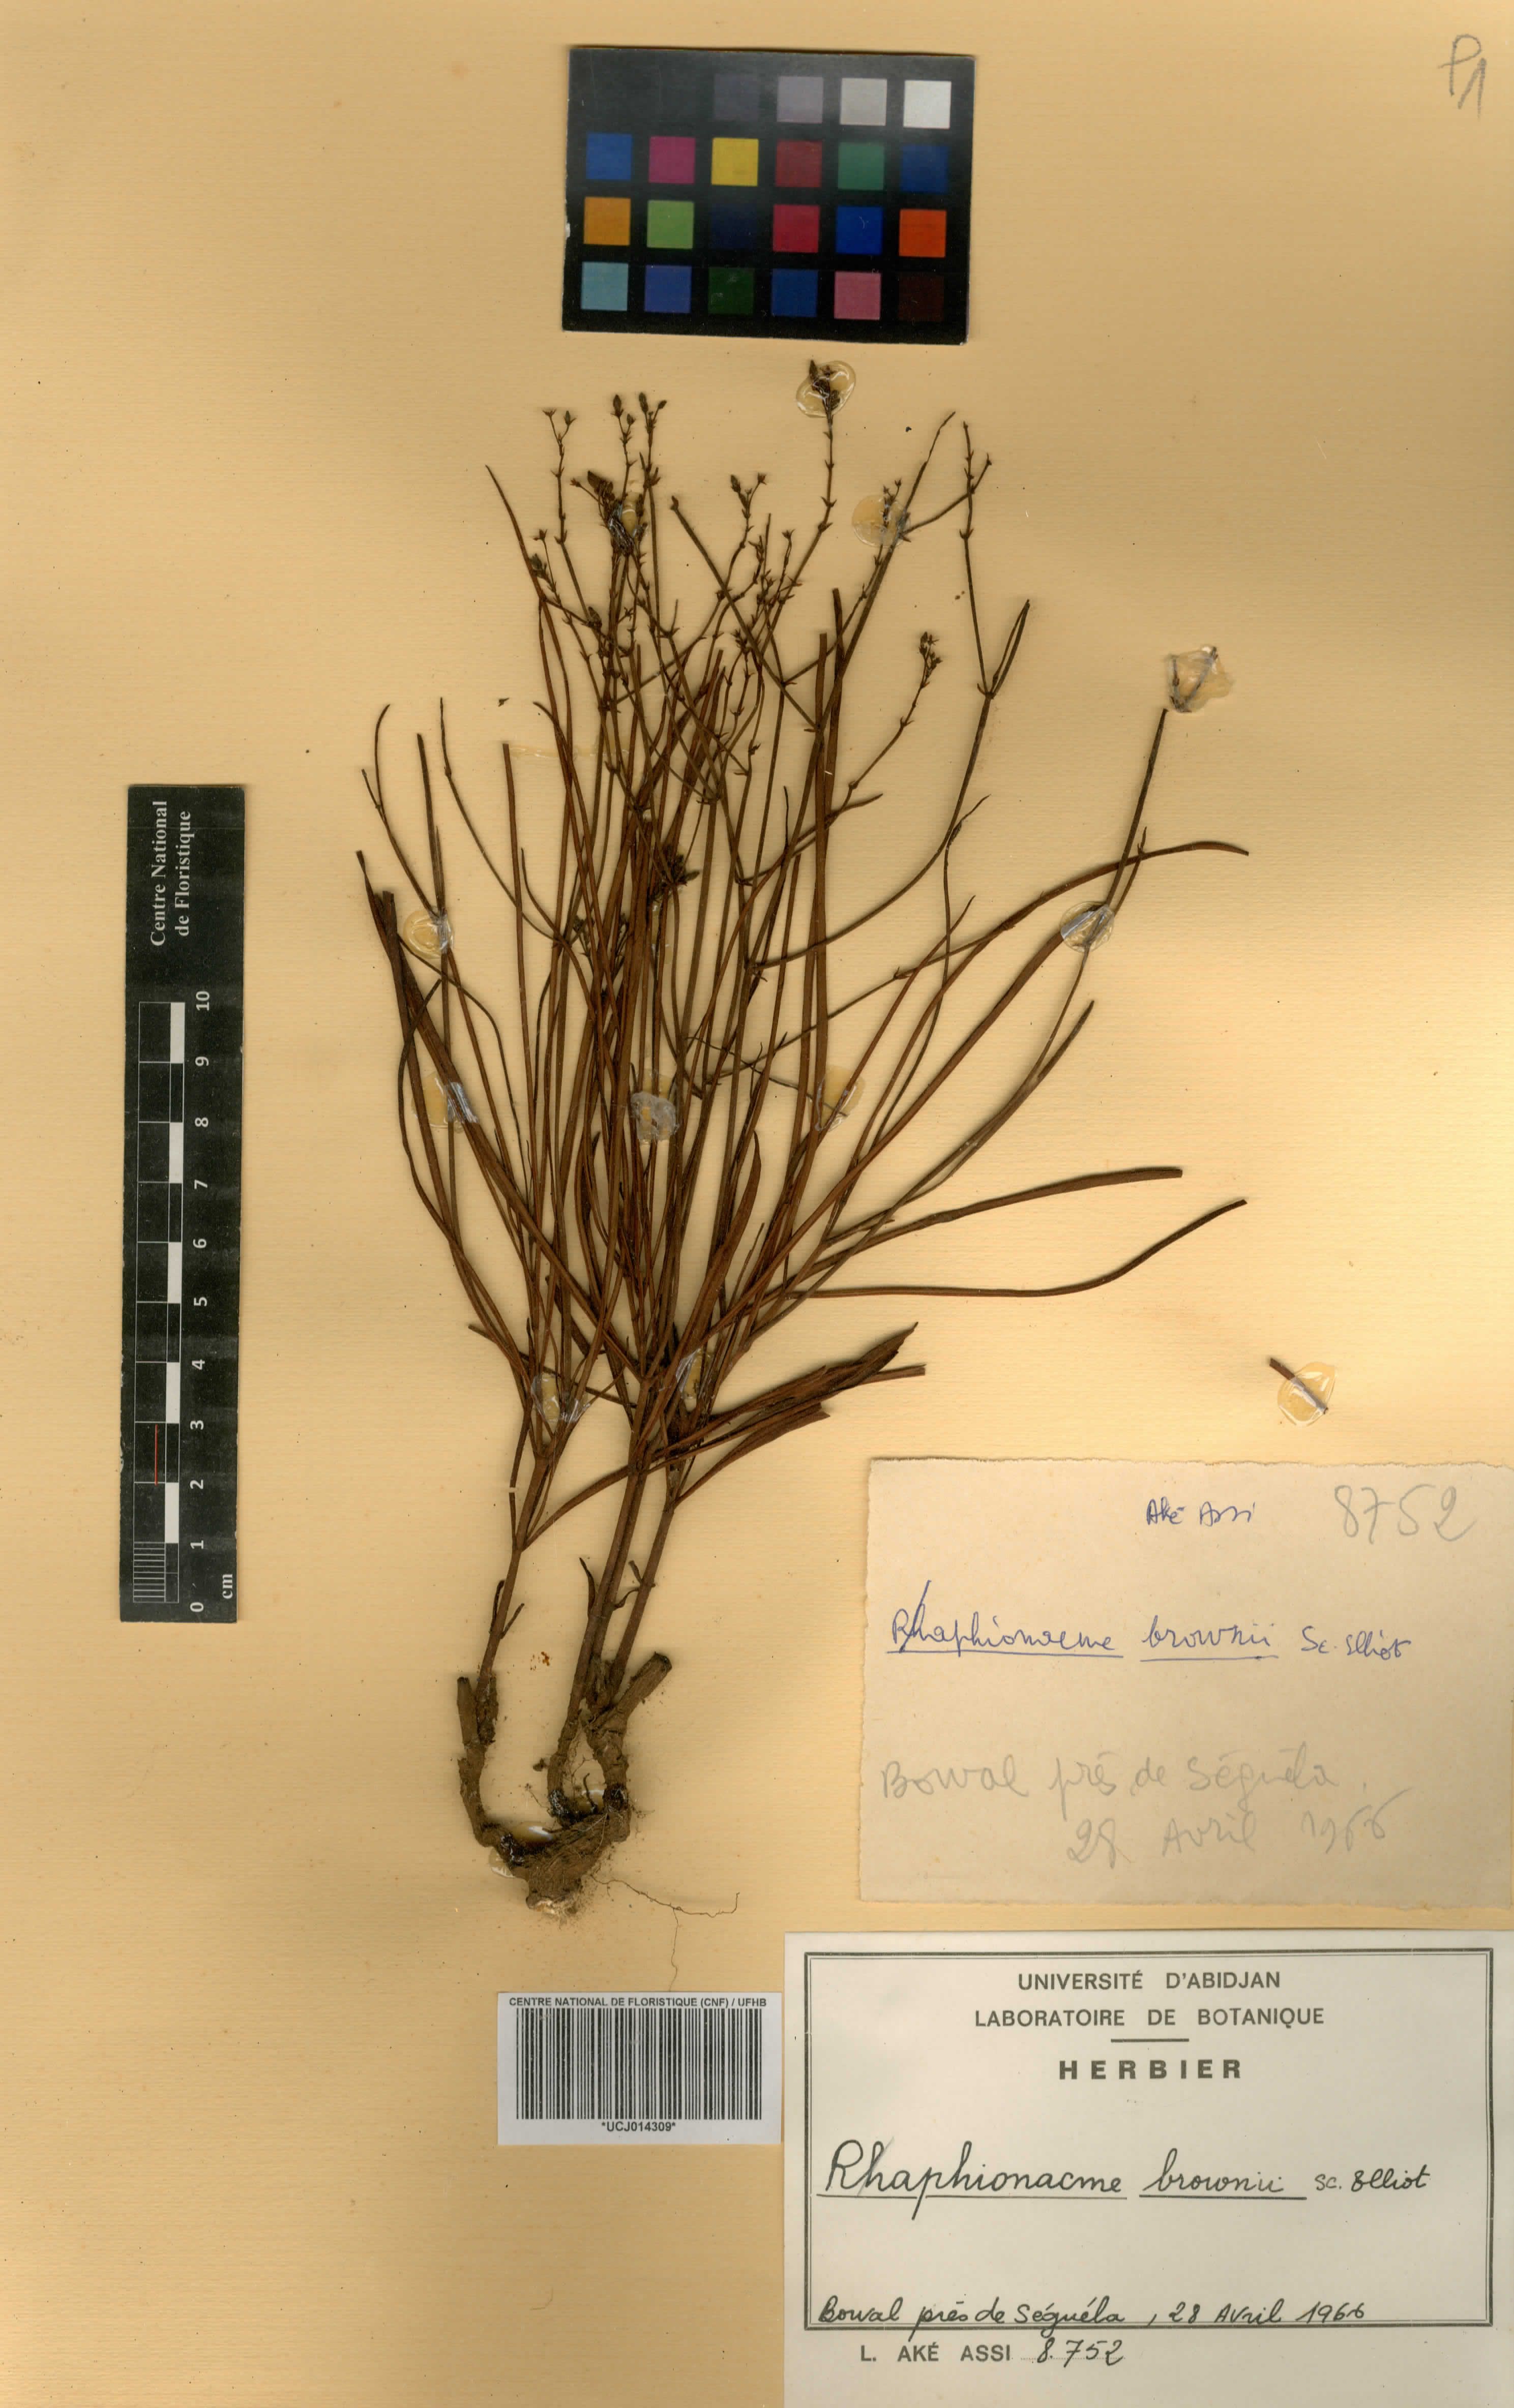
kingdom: Plantae
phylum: Tracheophyta
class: Magnoliopsida
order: Gentianales
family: Apocynaceae
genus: Raphionacme
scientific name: Raphionacme brownii
